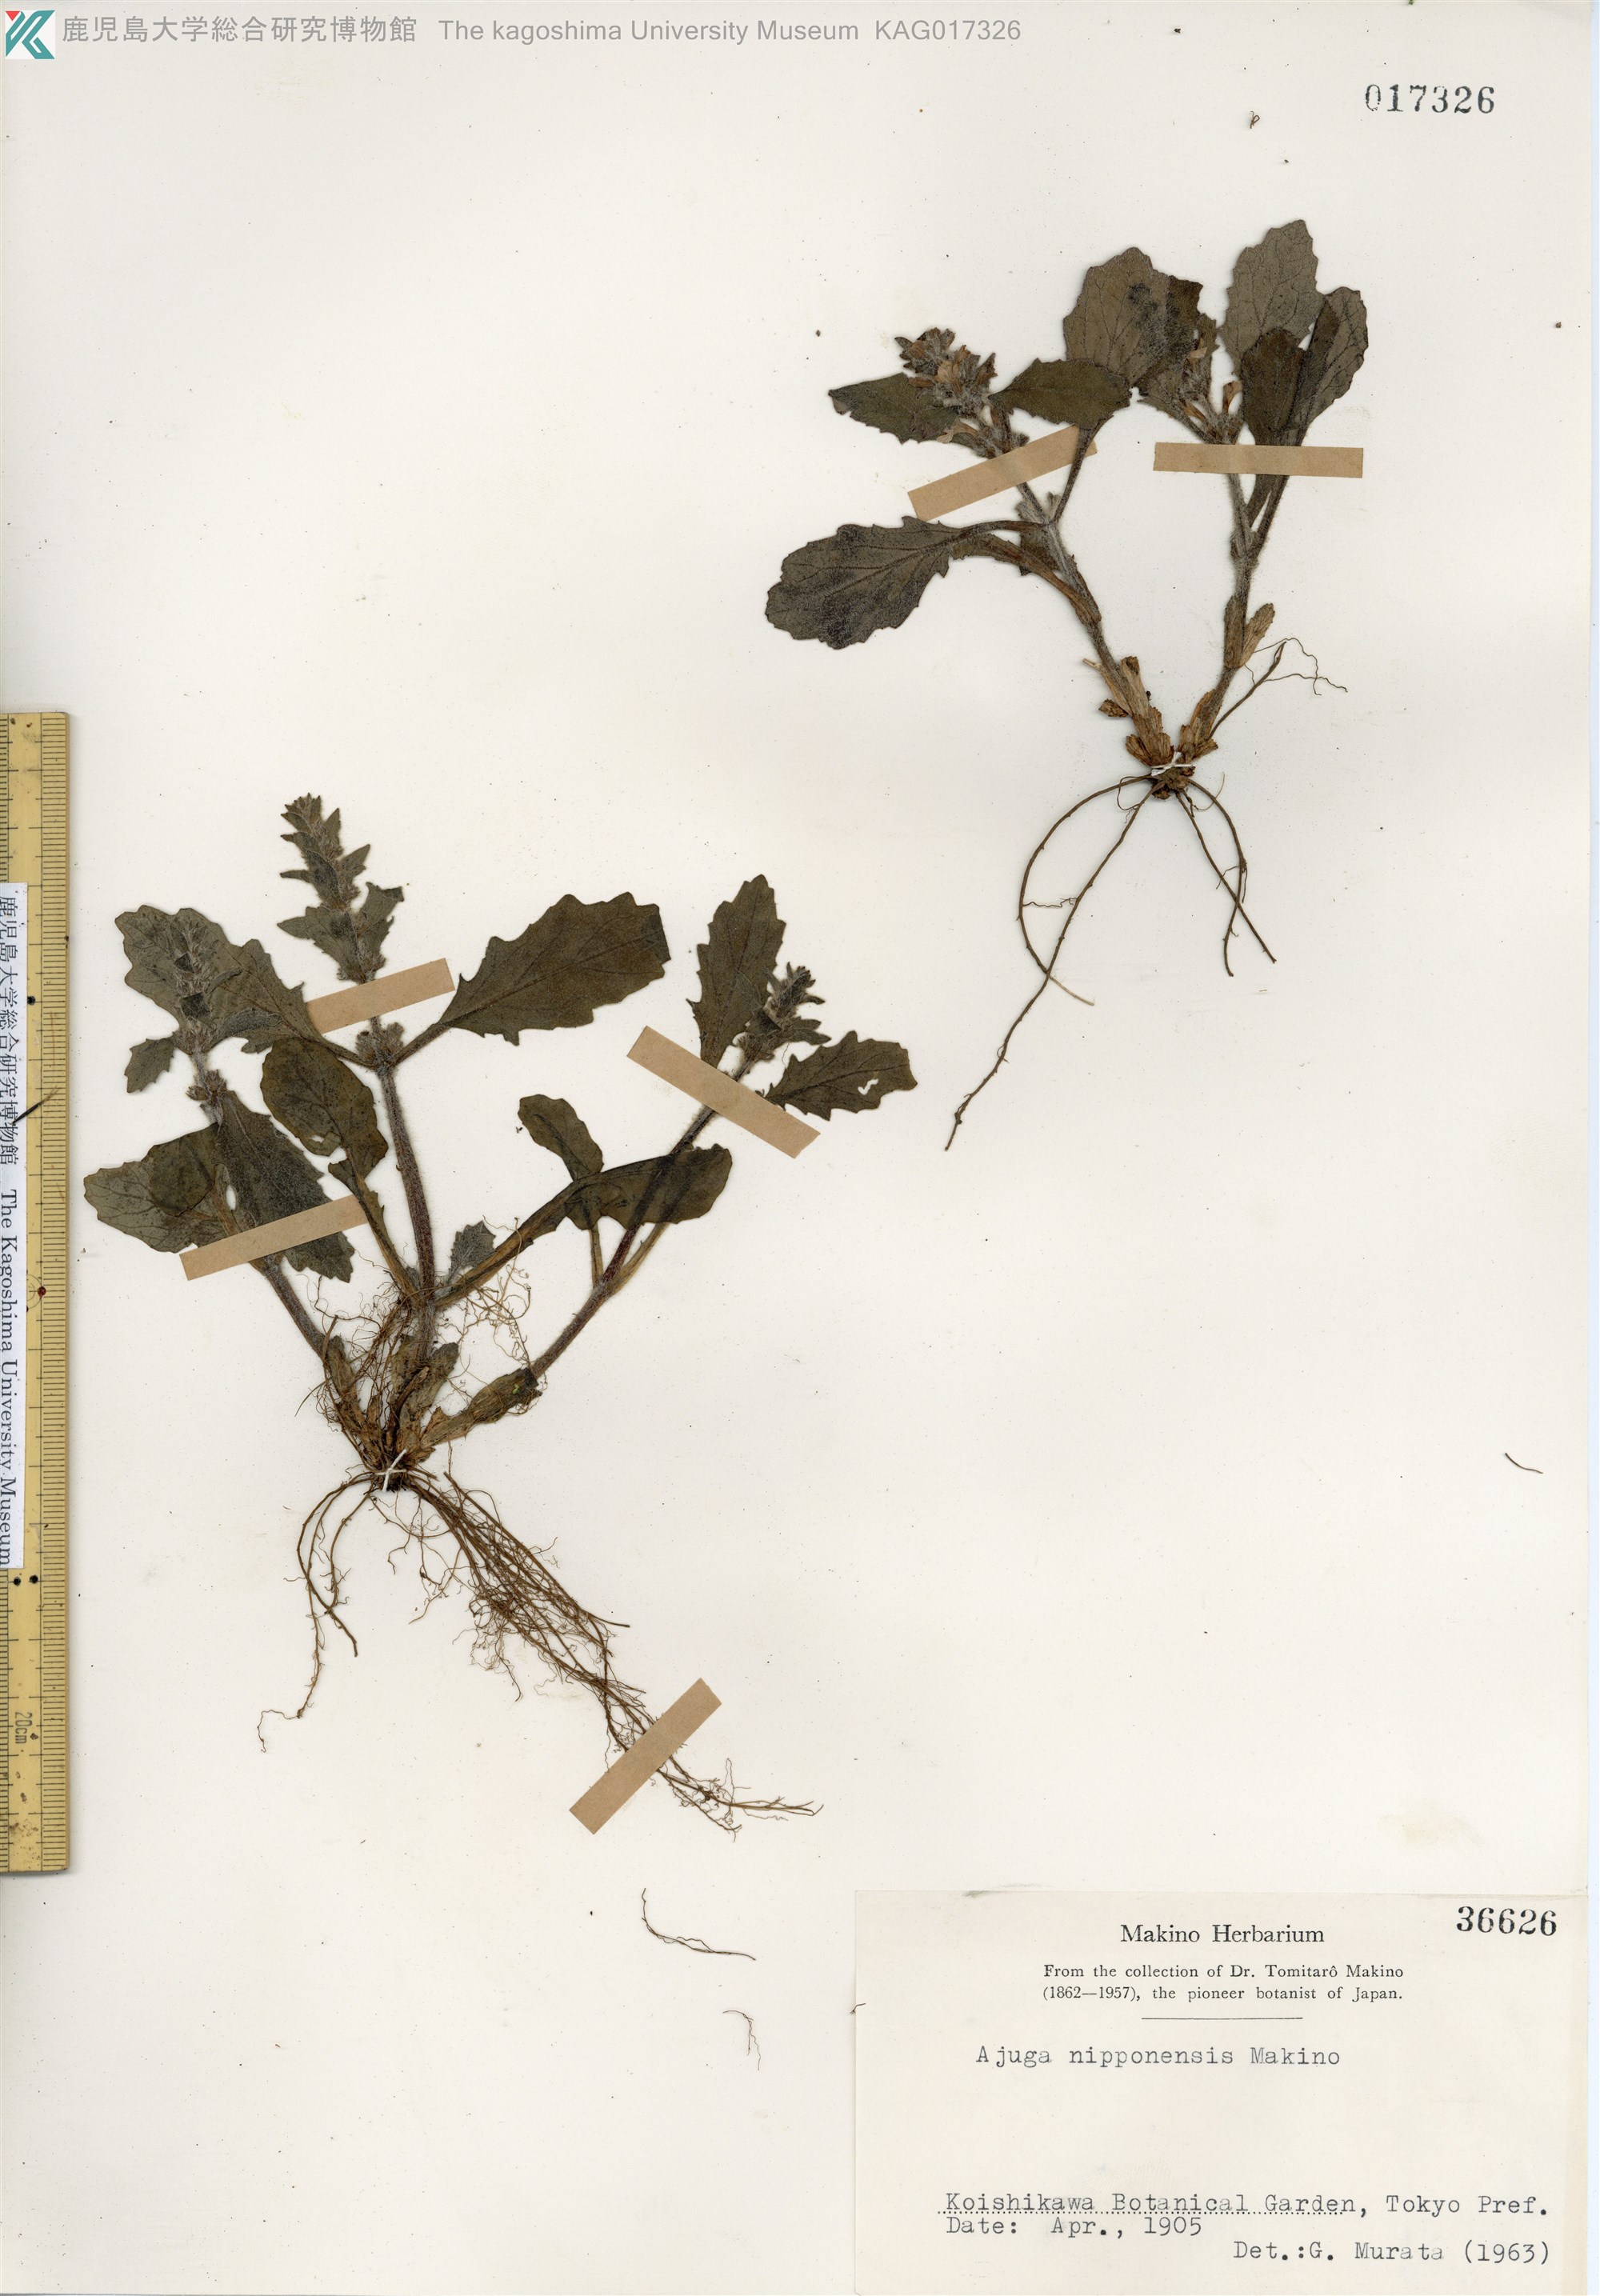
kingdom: Plantae
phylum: Tracheophyta
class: Magnoliopsida
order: Lamiales
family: Lamiaceae
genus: Ajuga
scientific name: Ajuga nipponensis
